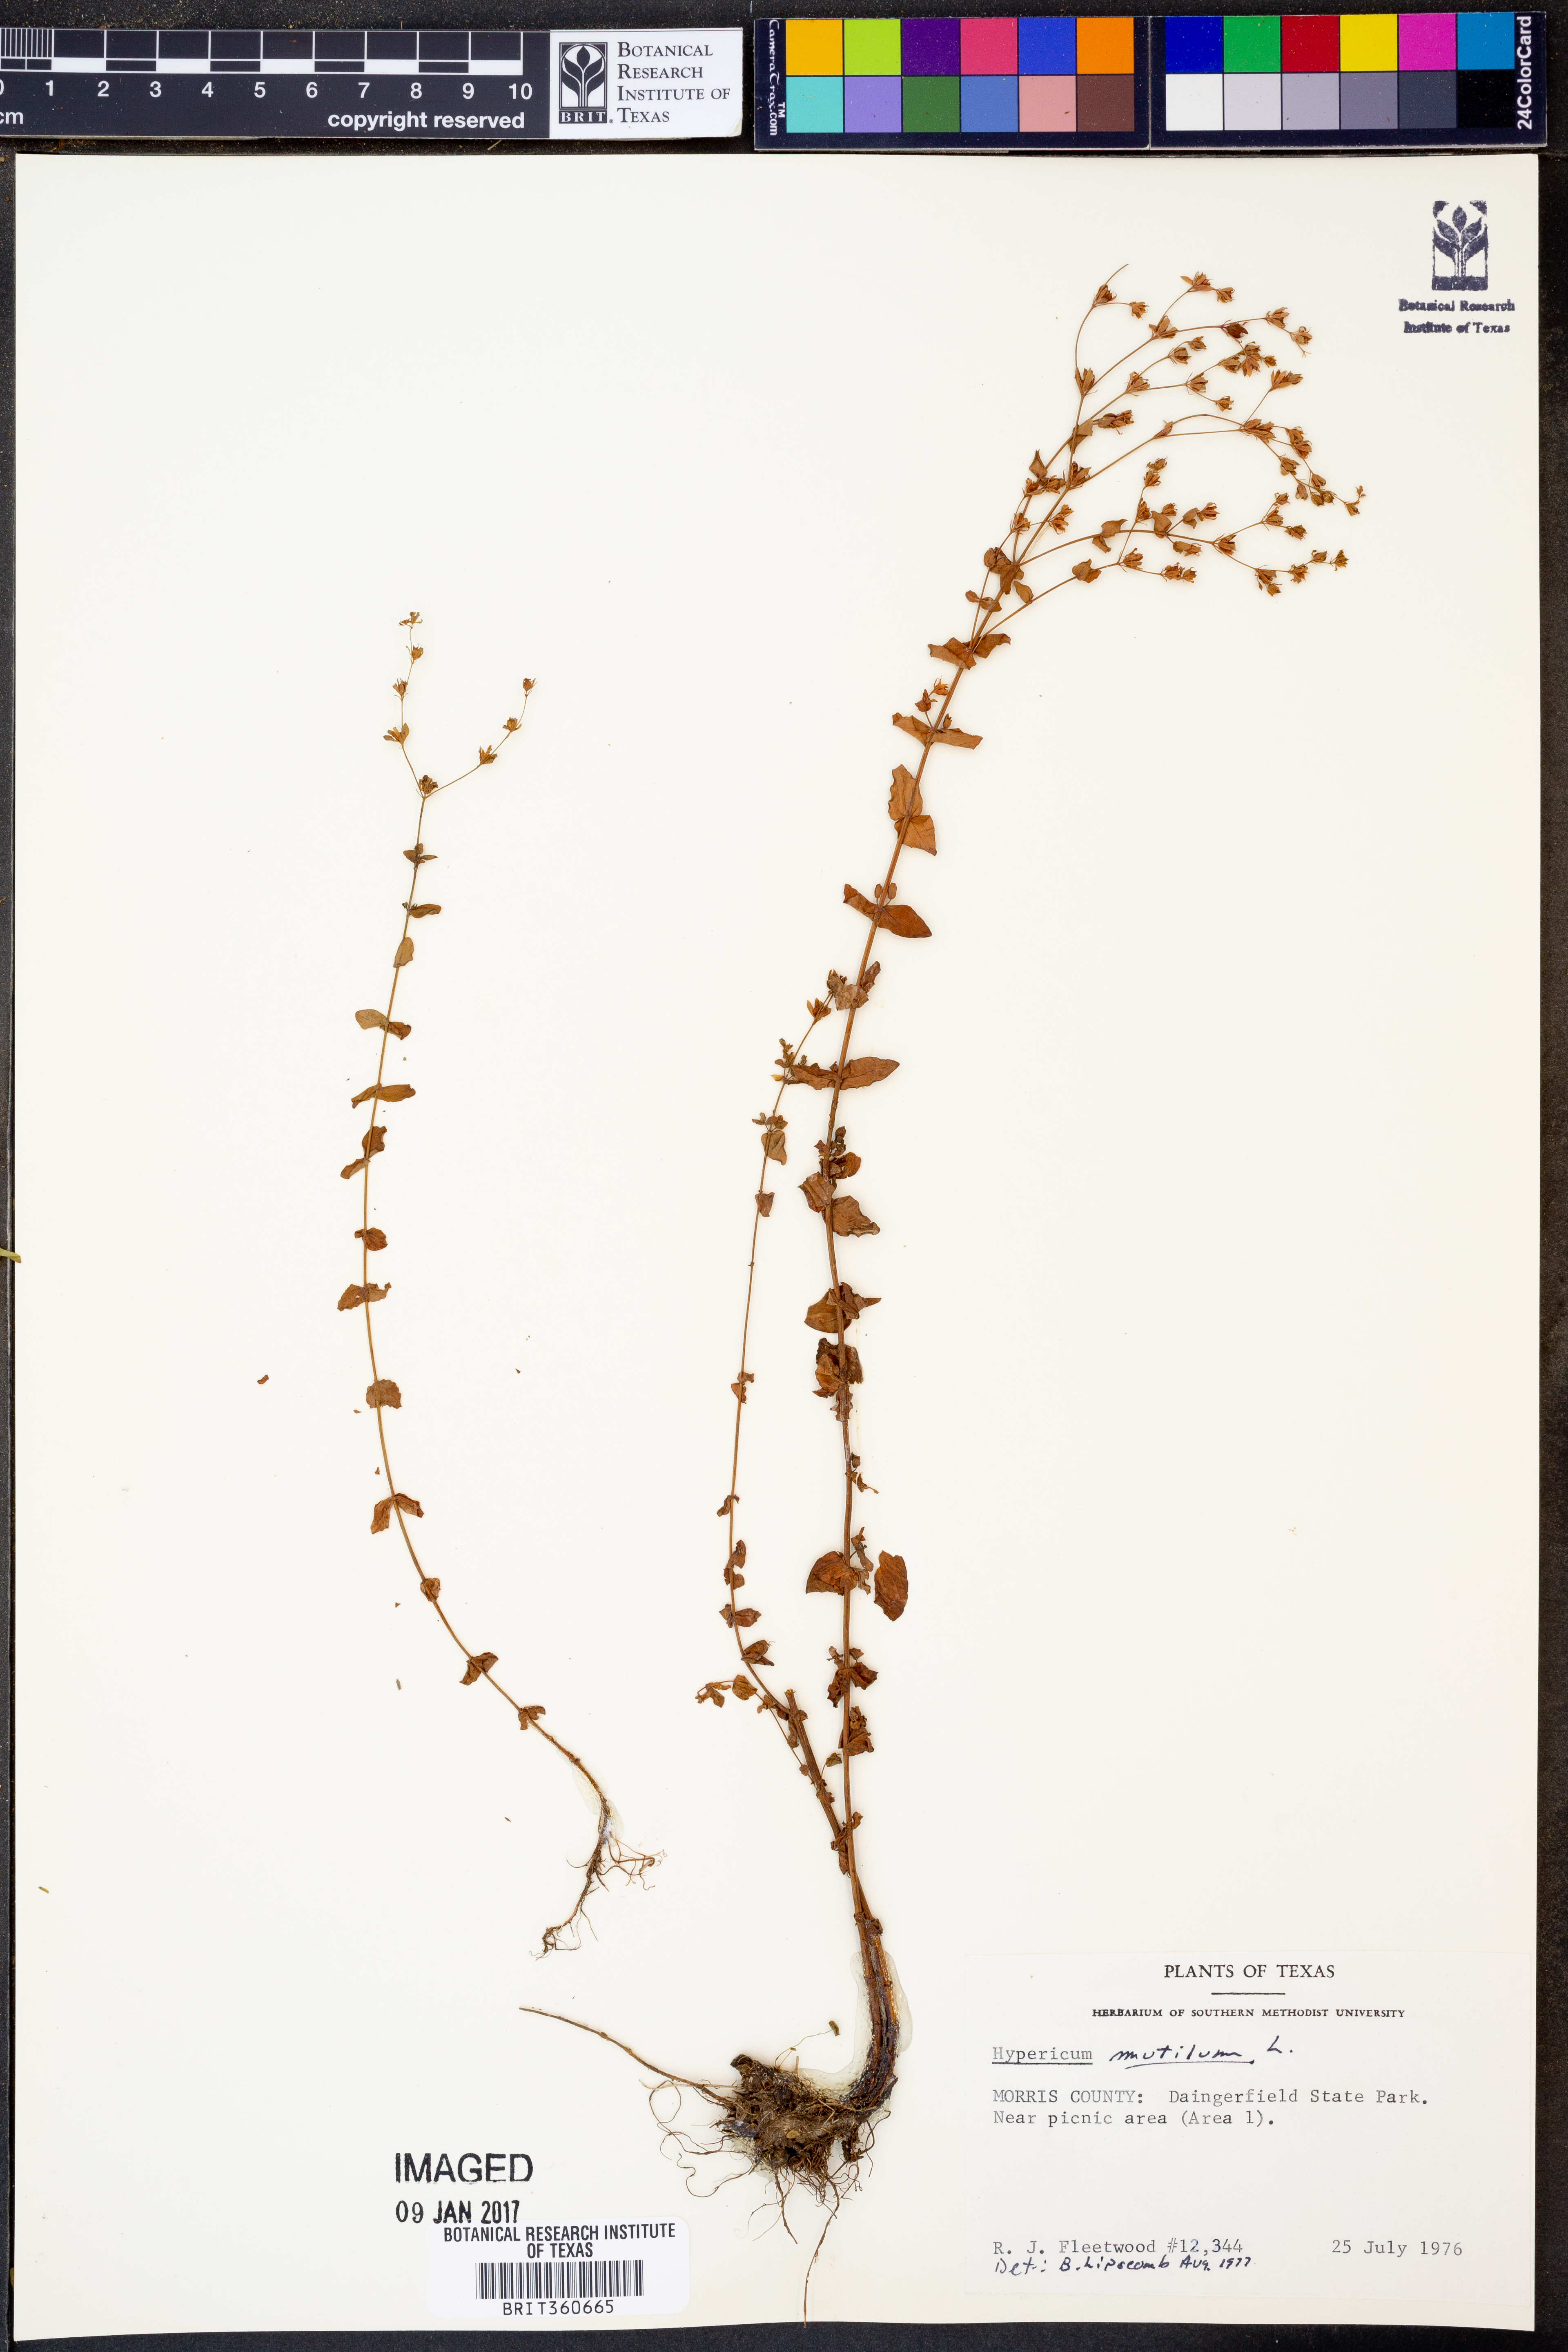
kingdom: Plantae
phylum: Tracheophyta
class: Magnoliopsida
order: Malpighiales
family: Hypericaceae
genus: Hypericum
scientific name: Hypericum mutilum
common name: Dwarf st. john's-wort
